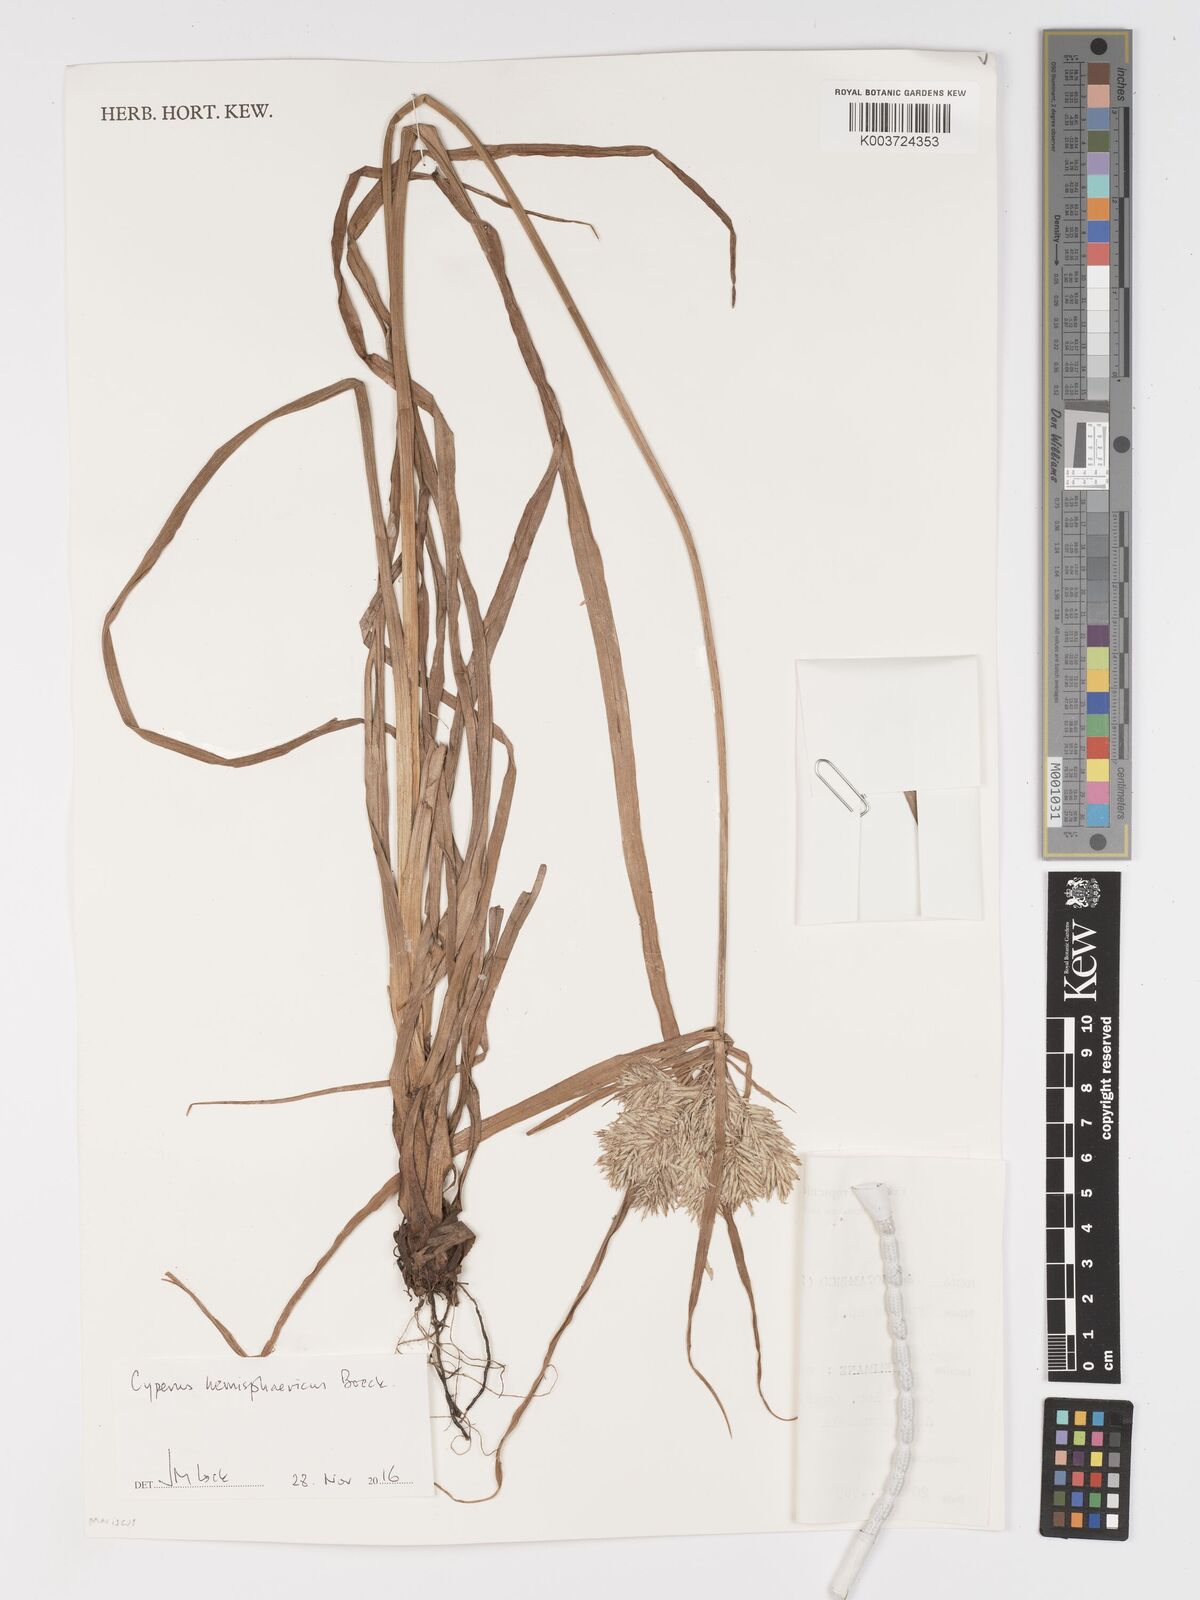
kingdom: Plantae
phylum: Tracheophyta
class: Liliopsida
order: Poales
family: Cyperaceae
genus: Cyperus
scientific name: Cyperus hemisphaericus
